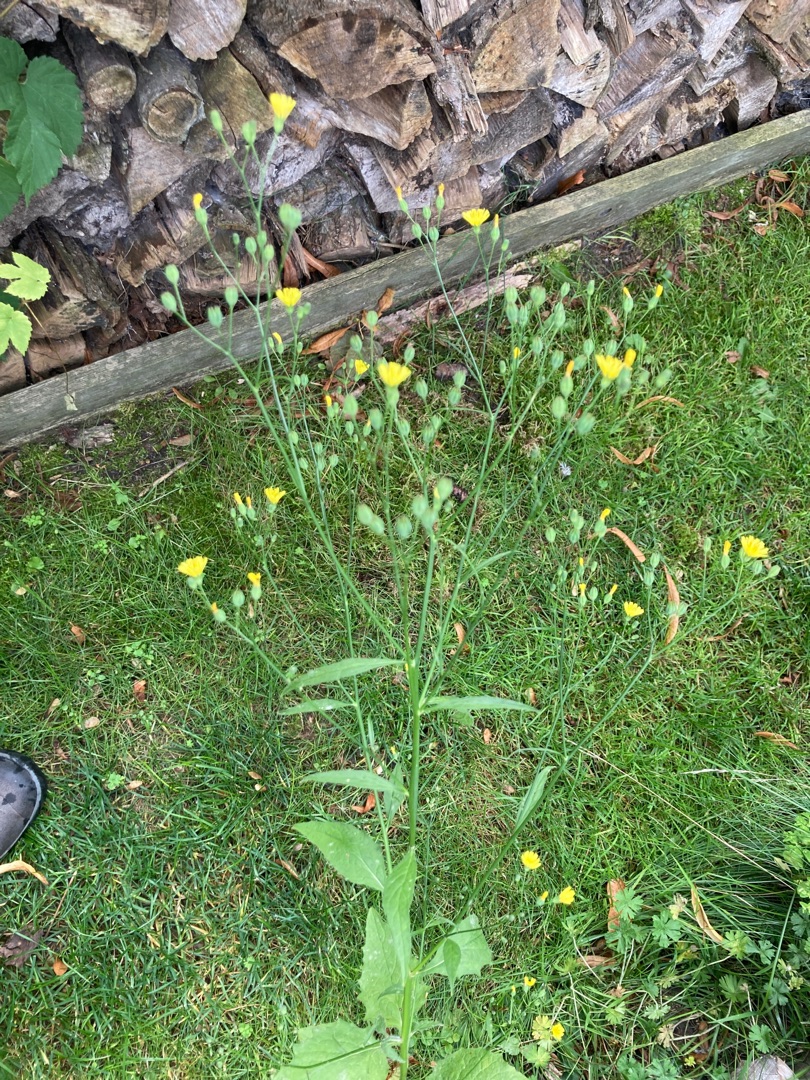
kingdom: Plantae
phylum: Tracheophyta
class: Magnoliopsida
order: Asterales
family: Asteraceae
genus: Lapsana
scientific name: Lapsana communis
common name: Haremad
